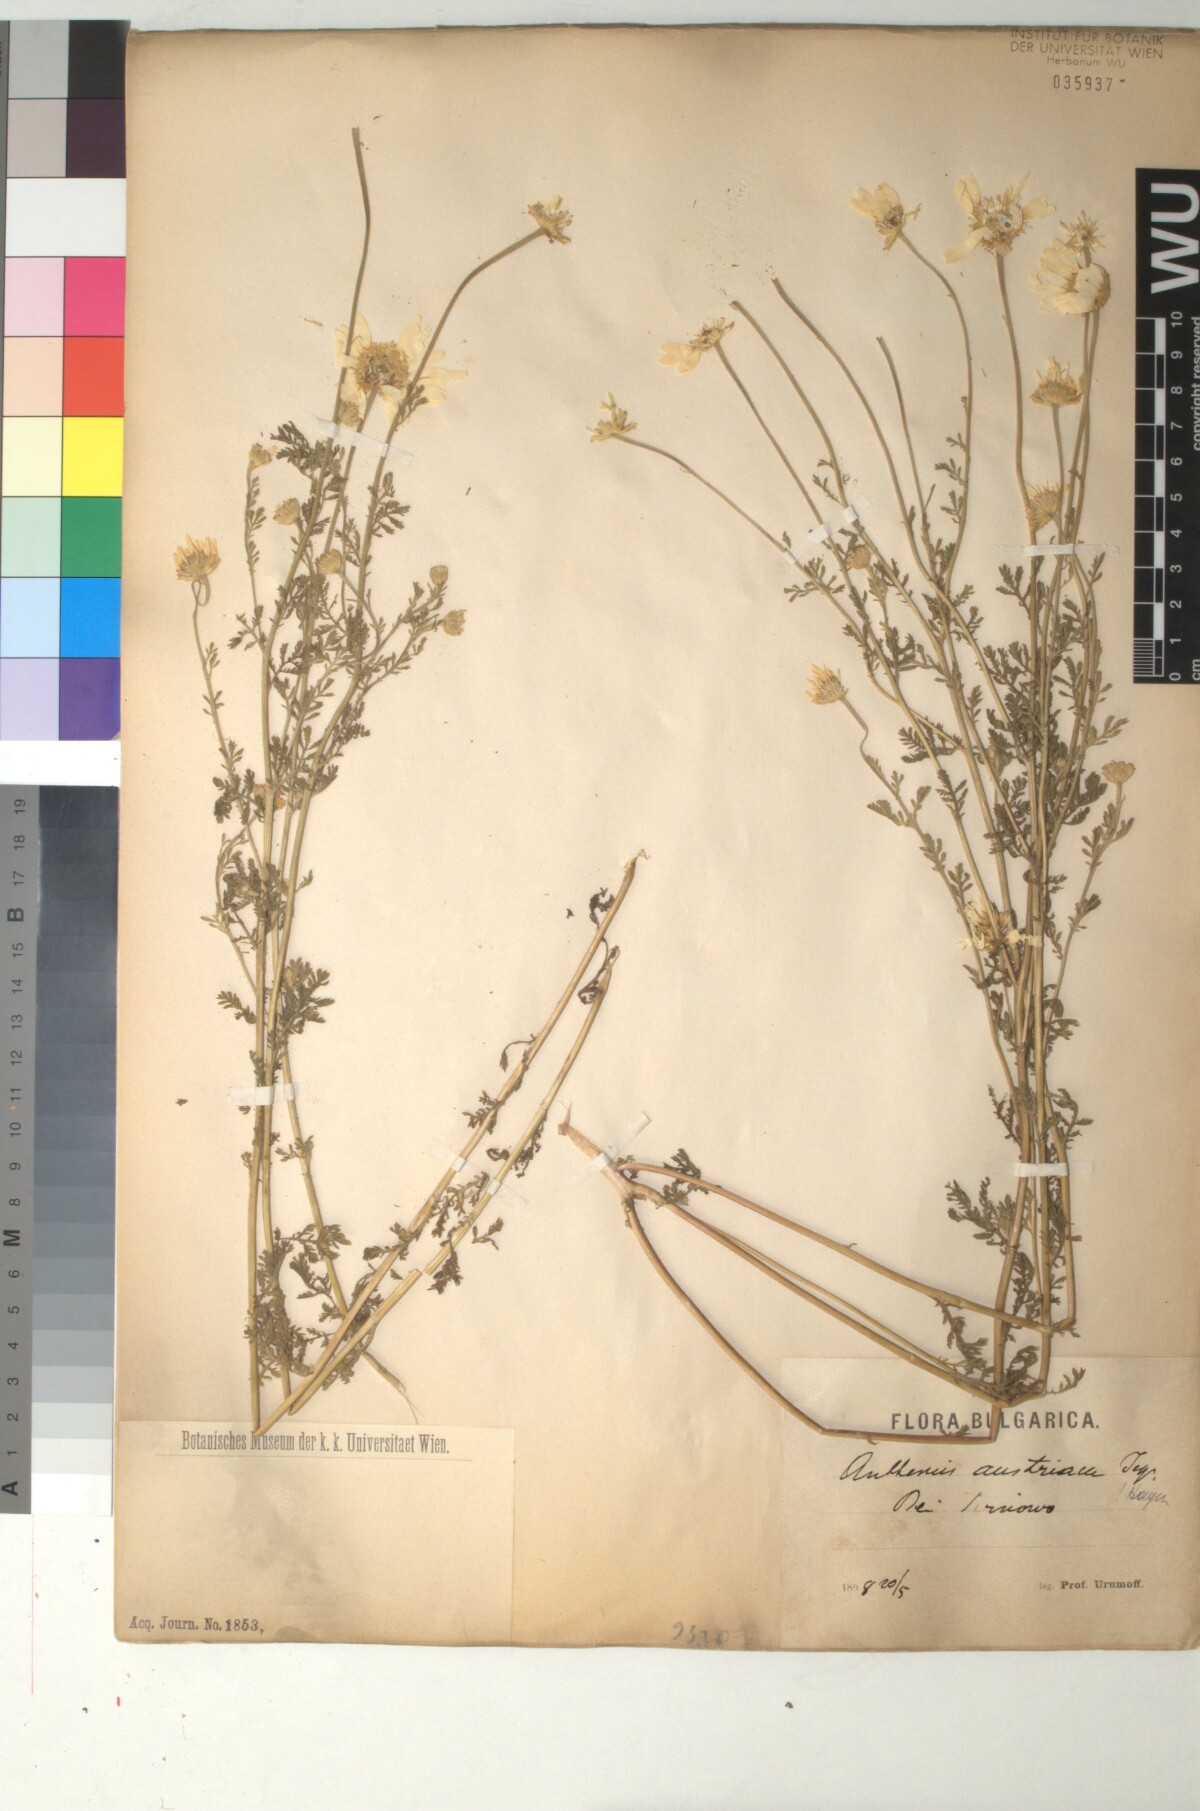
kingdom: Plantae
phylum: Tracheophyta
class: Magnoliopsida
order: Asterales
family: Asteraceae
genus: Cota
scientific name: Cota austriaca
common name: Austrian chamomile
